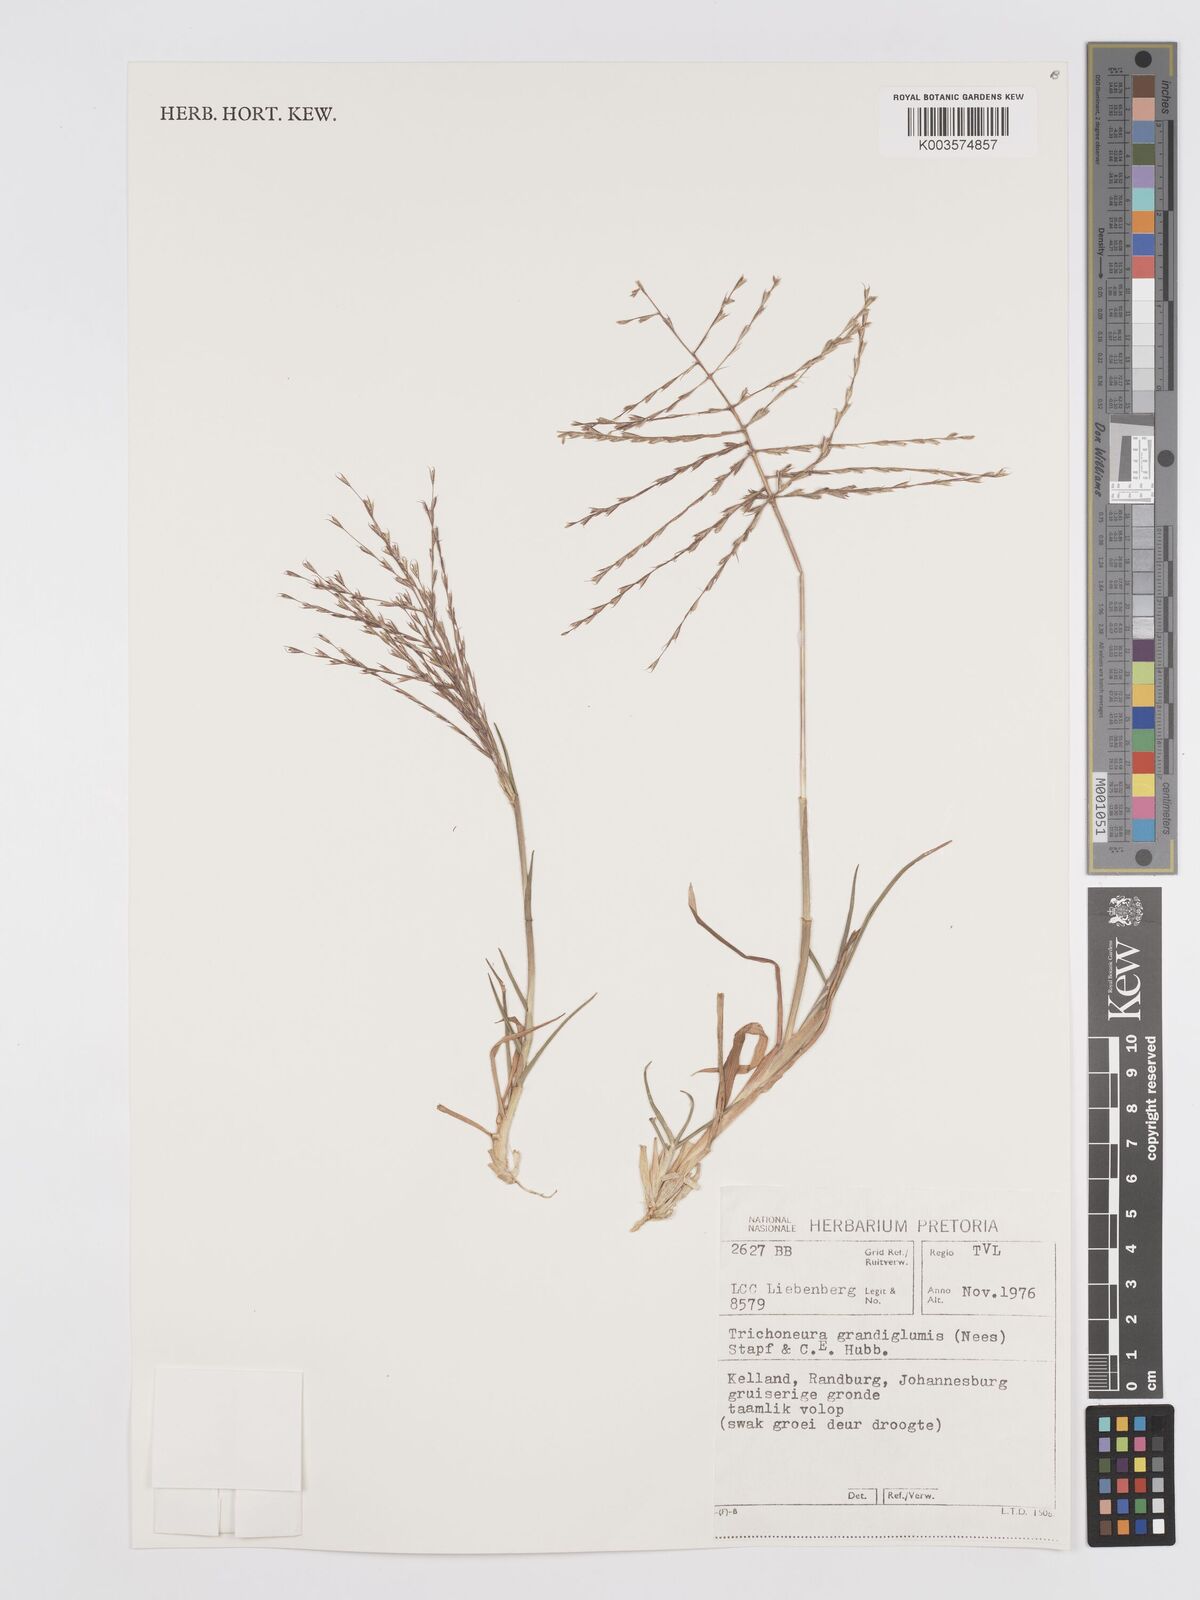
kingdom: Plantae
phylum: Tracheophyta
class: Liliopsida
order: Poales
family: Poaceae
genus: Trichoneura
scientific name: Trichoneura grandiglumis
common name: Rolling grass
